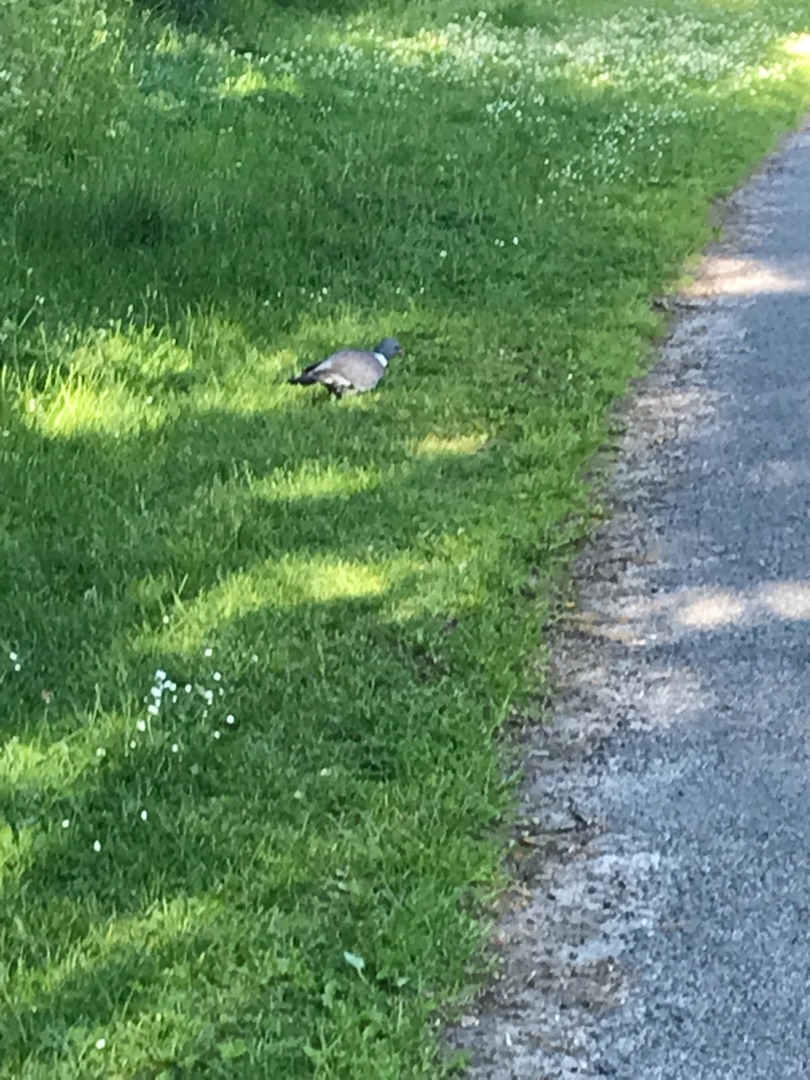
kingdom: Animalia
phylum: Chordata
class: Aves
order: Columbiformes
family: Columbidae
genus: Columba
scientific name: Columba palumbus
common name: Ringdue
